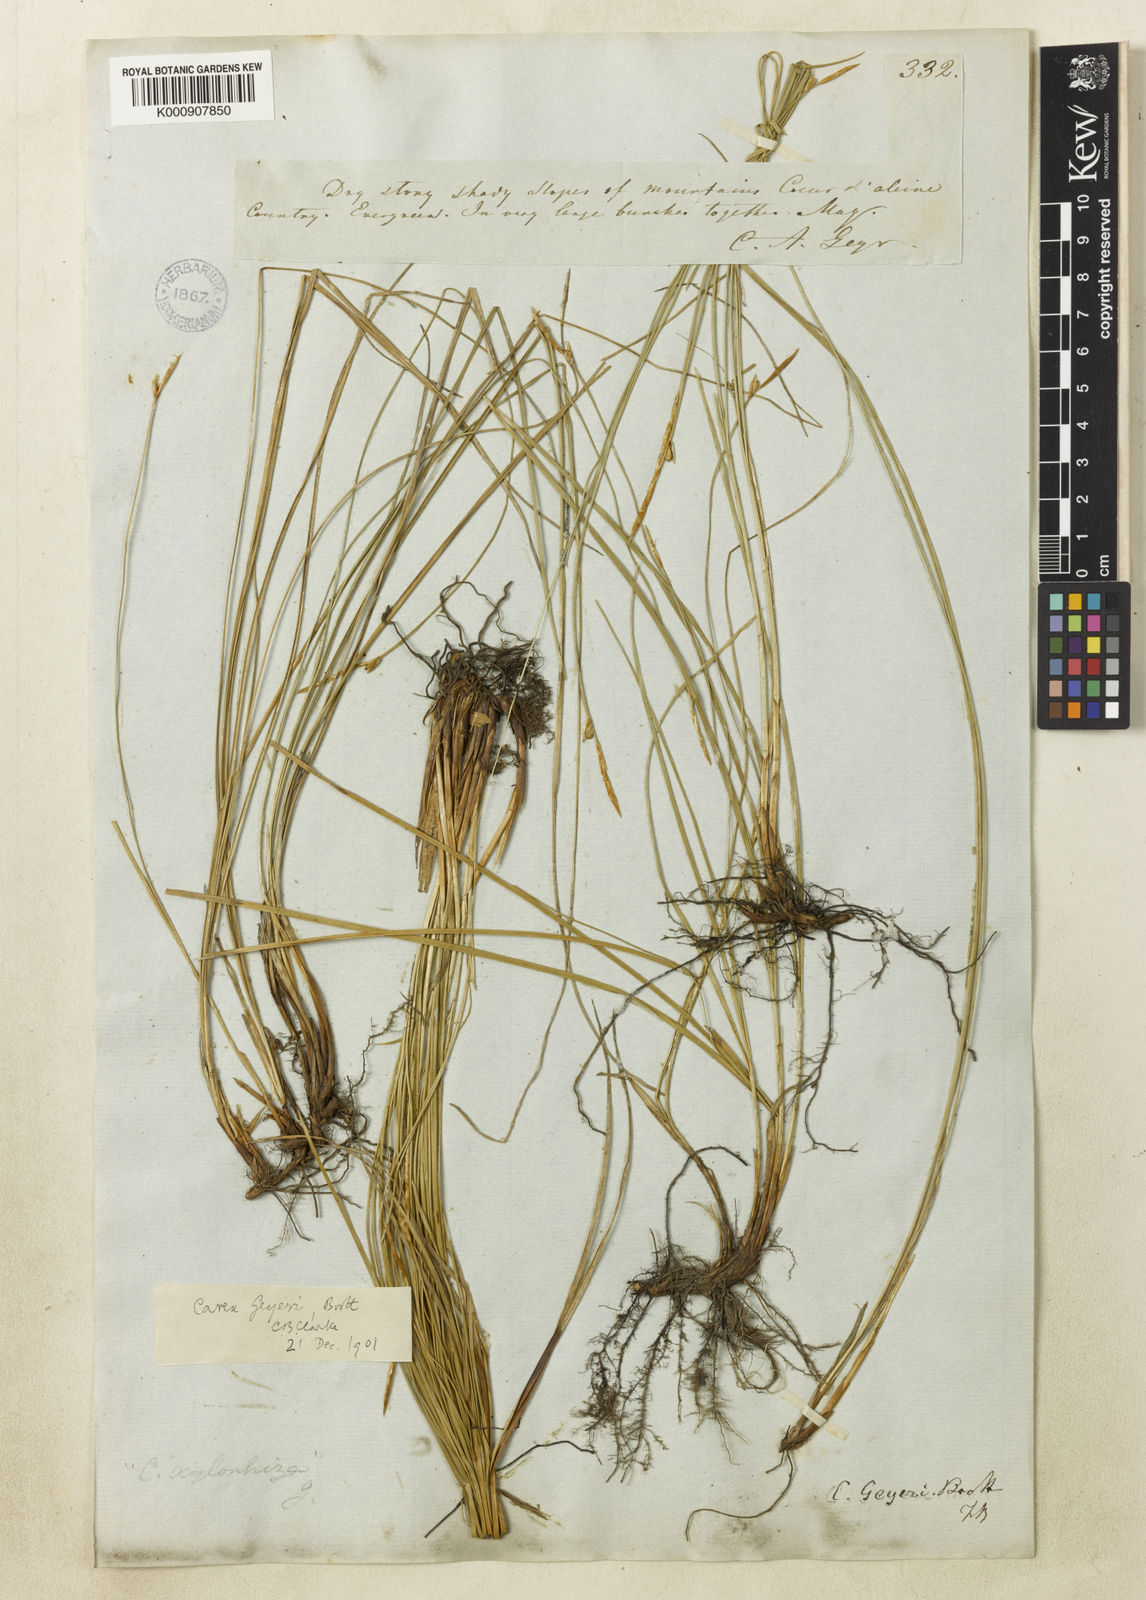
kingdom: Plantae
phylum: Tracheophyta
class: Liliopsida
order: Poales
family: Cyperaceae
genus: Carex
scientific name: Carex geyeri
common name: Elk sedge
